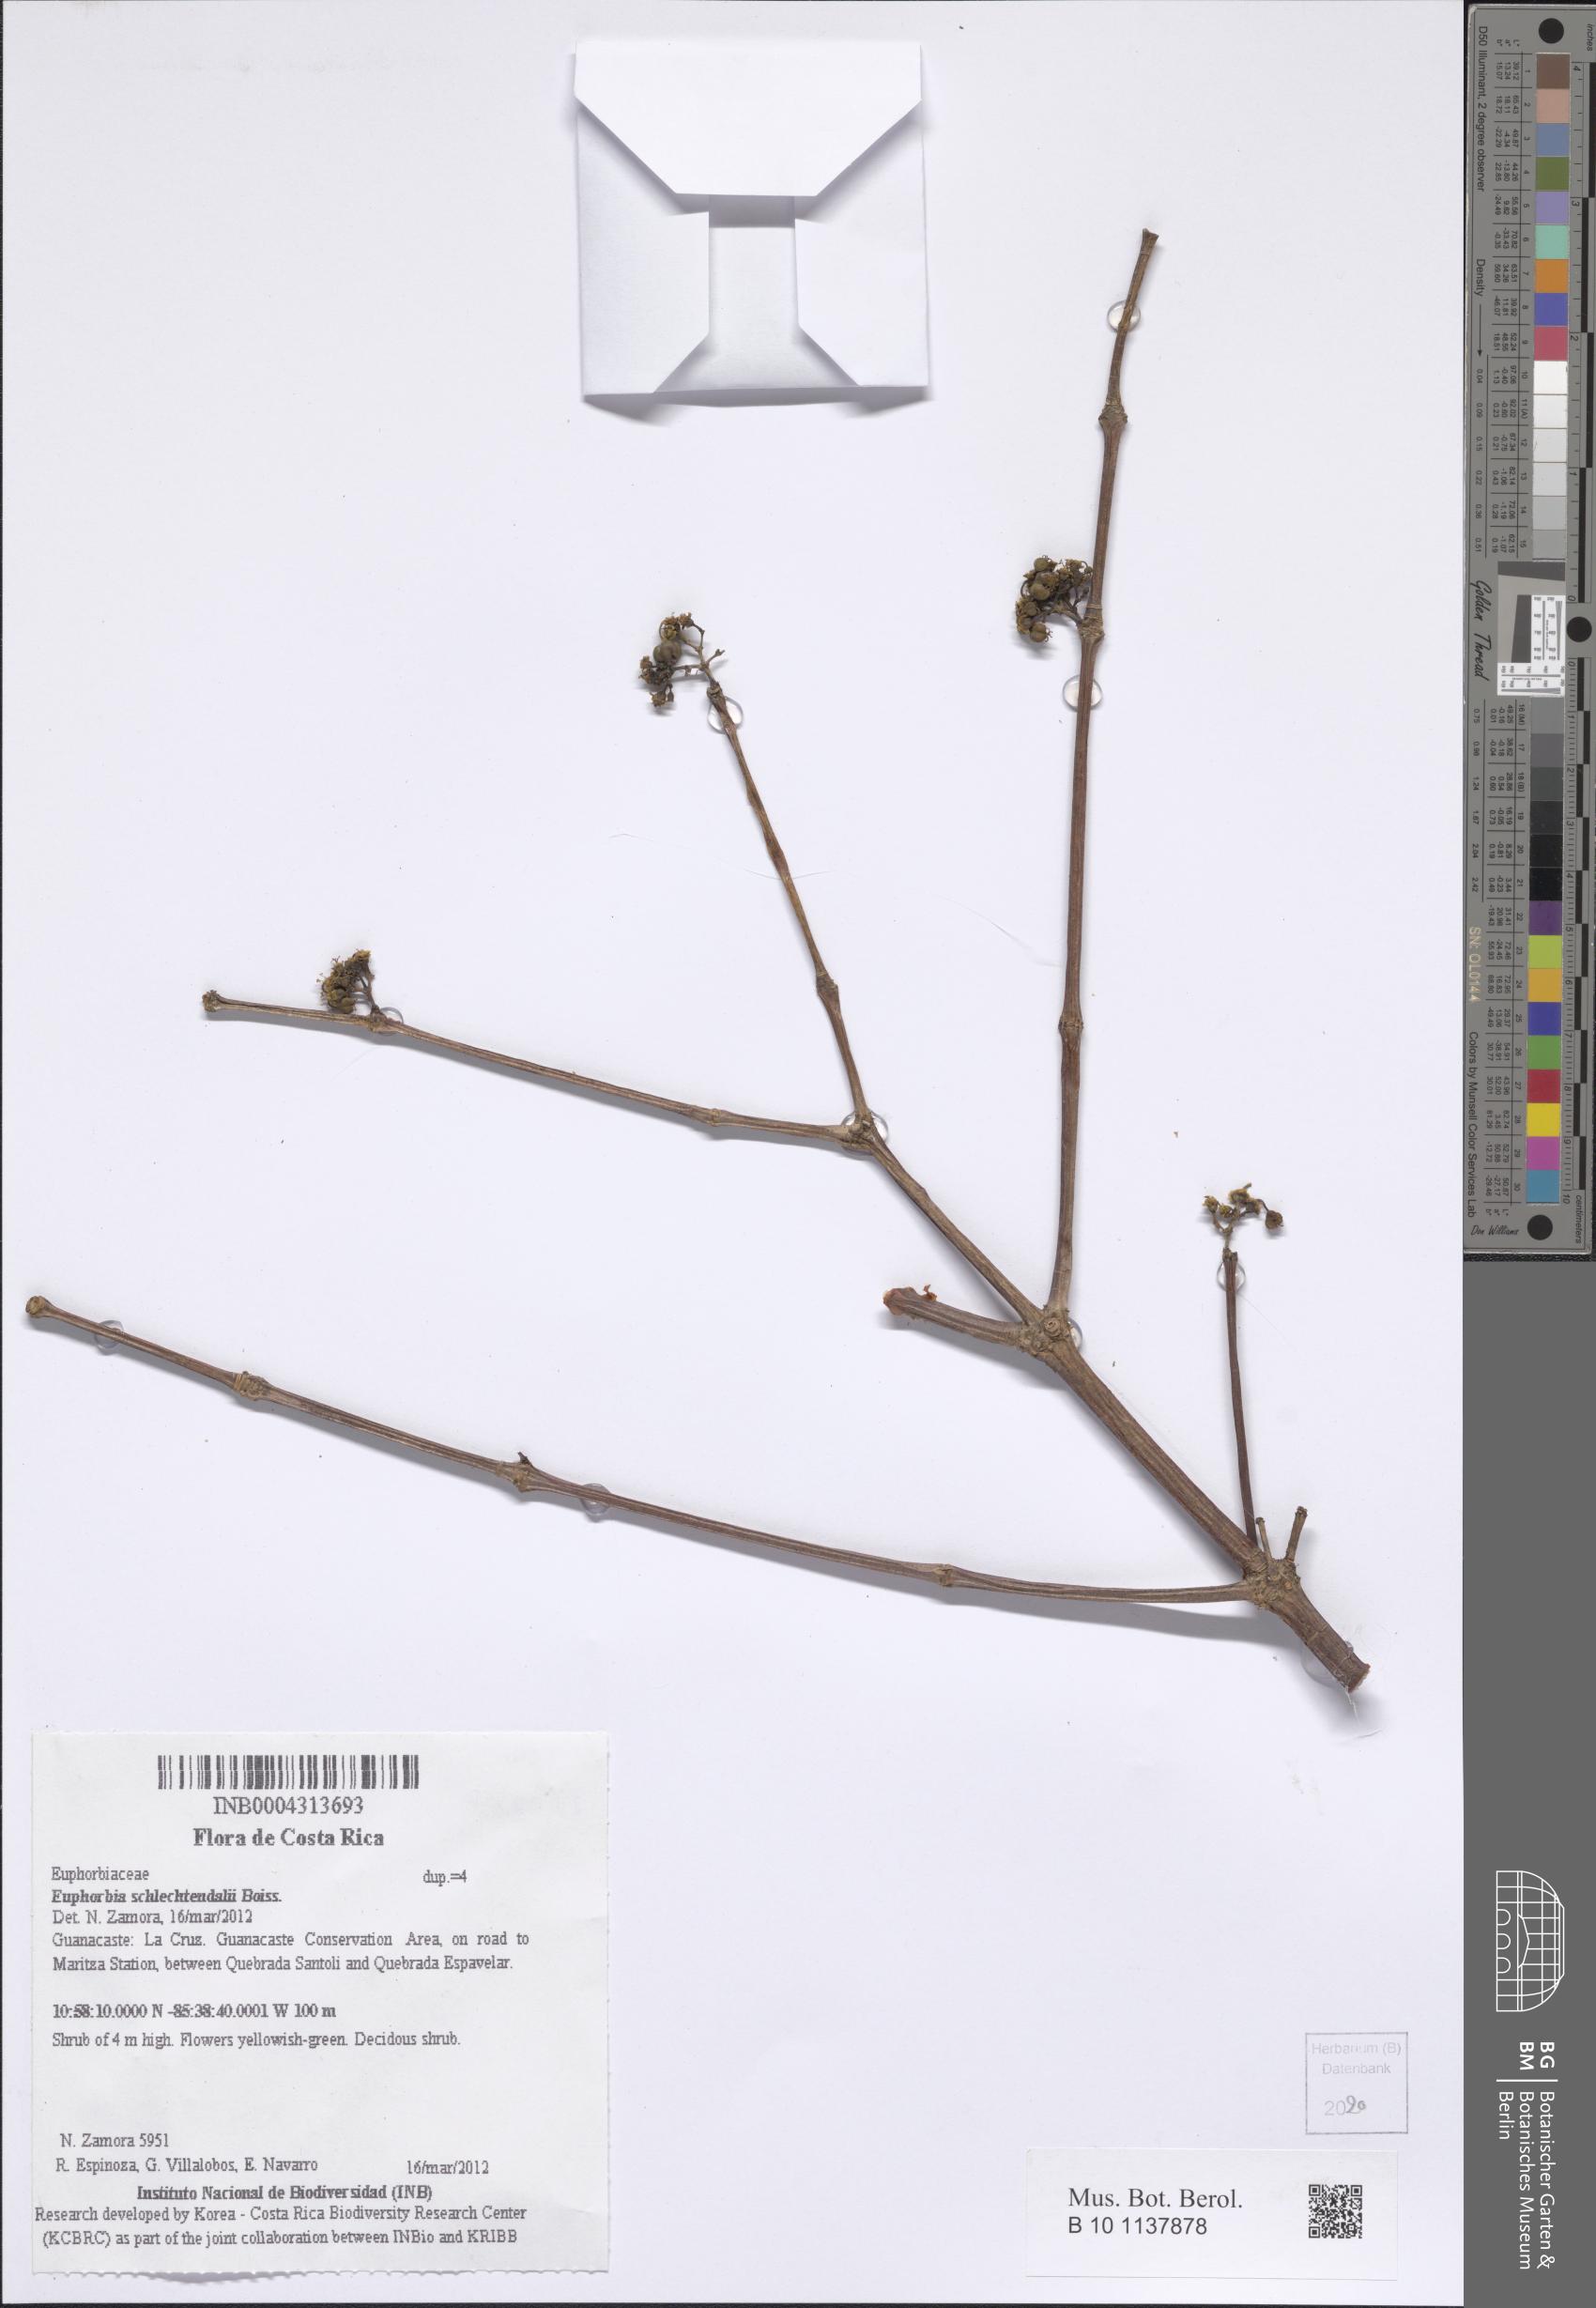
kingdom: Plantae
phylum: Tracheophyta
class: Magnoliopsida
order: Malpighiales
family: Euphorbiaceae
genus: Euphorbia
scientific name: Euphorbia schlechtendalii
